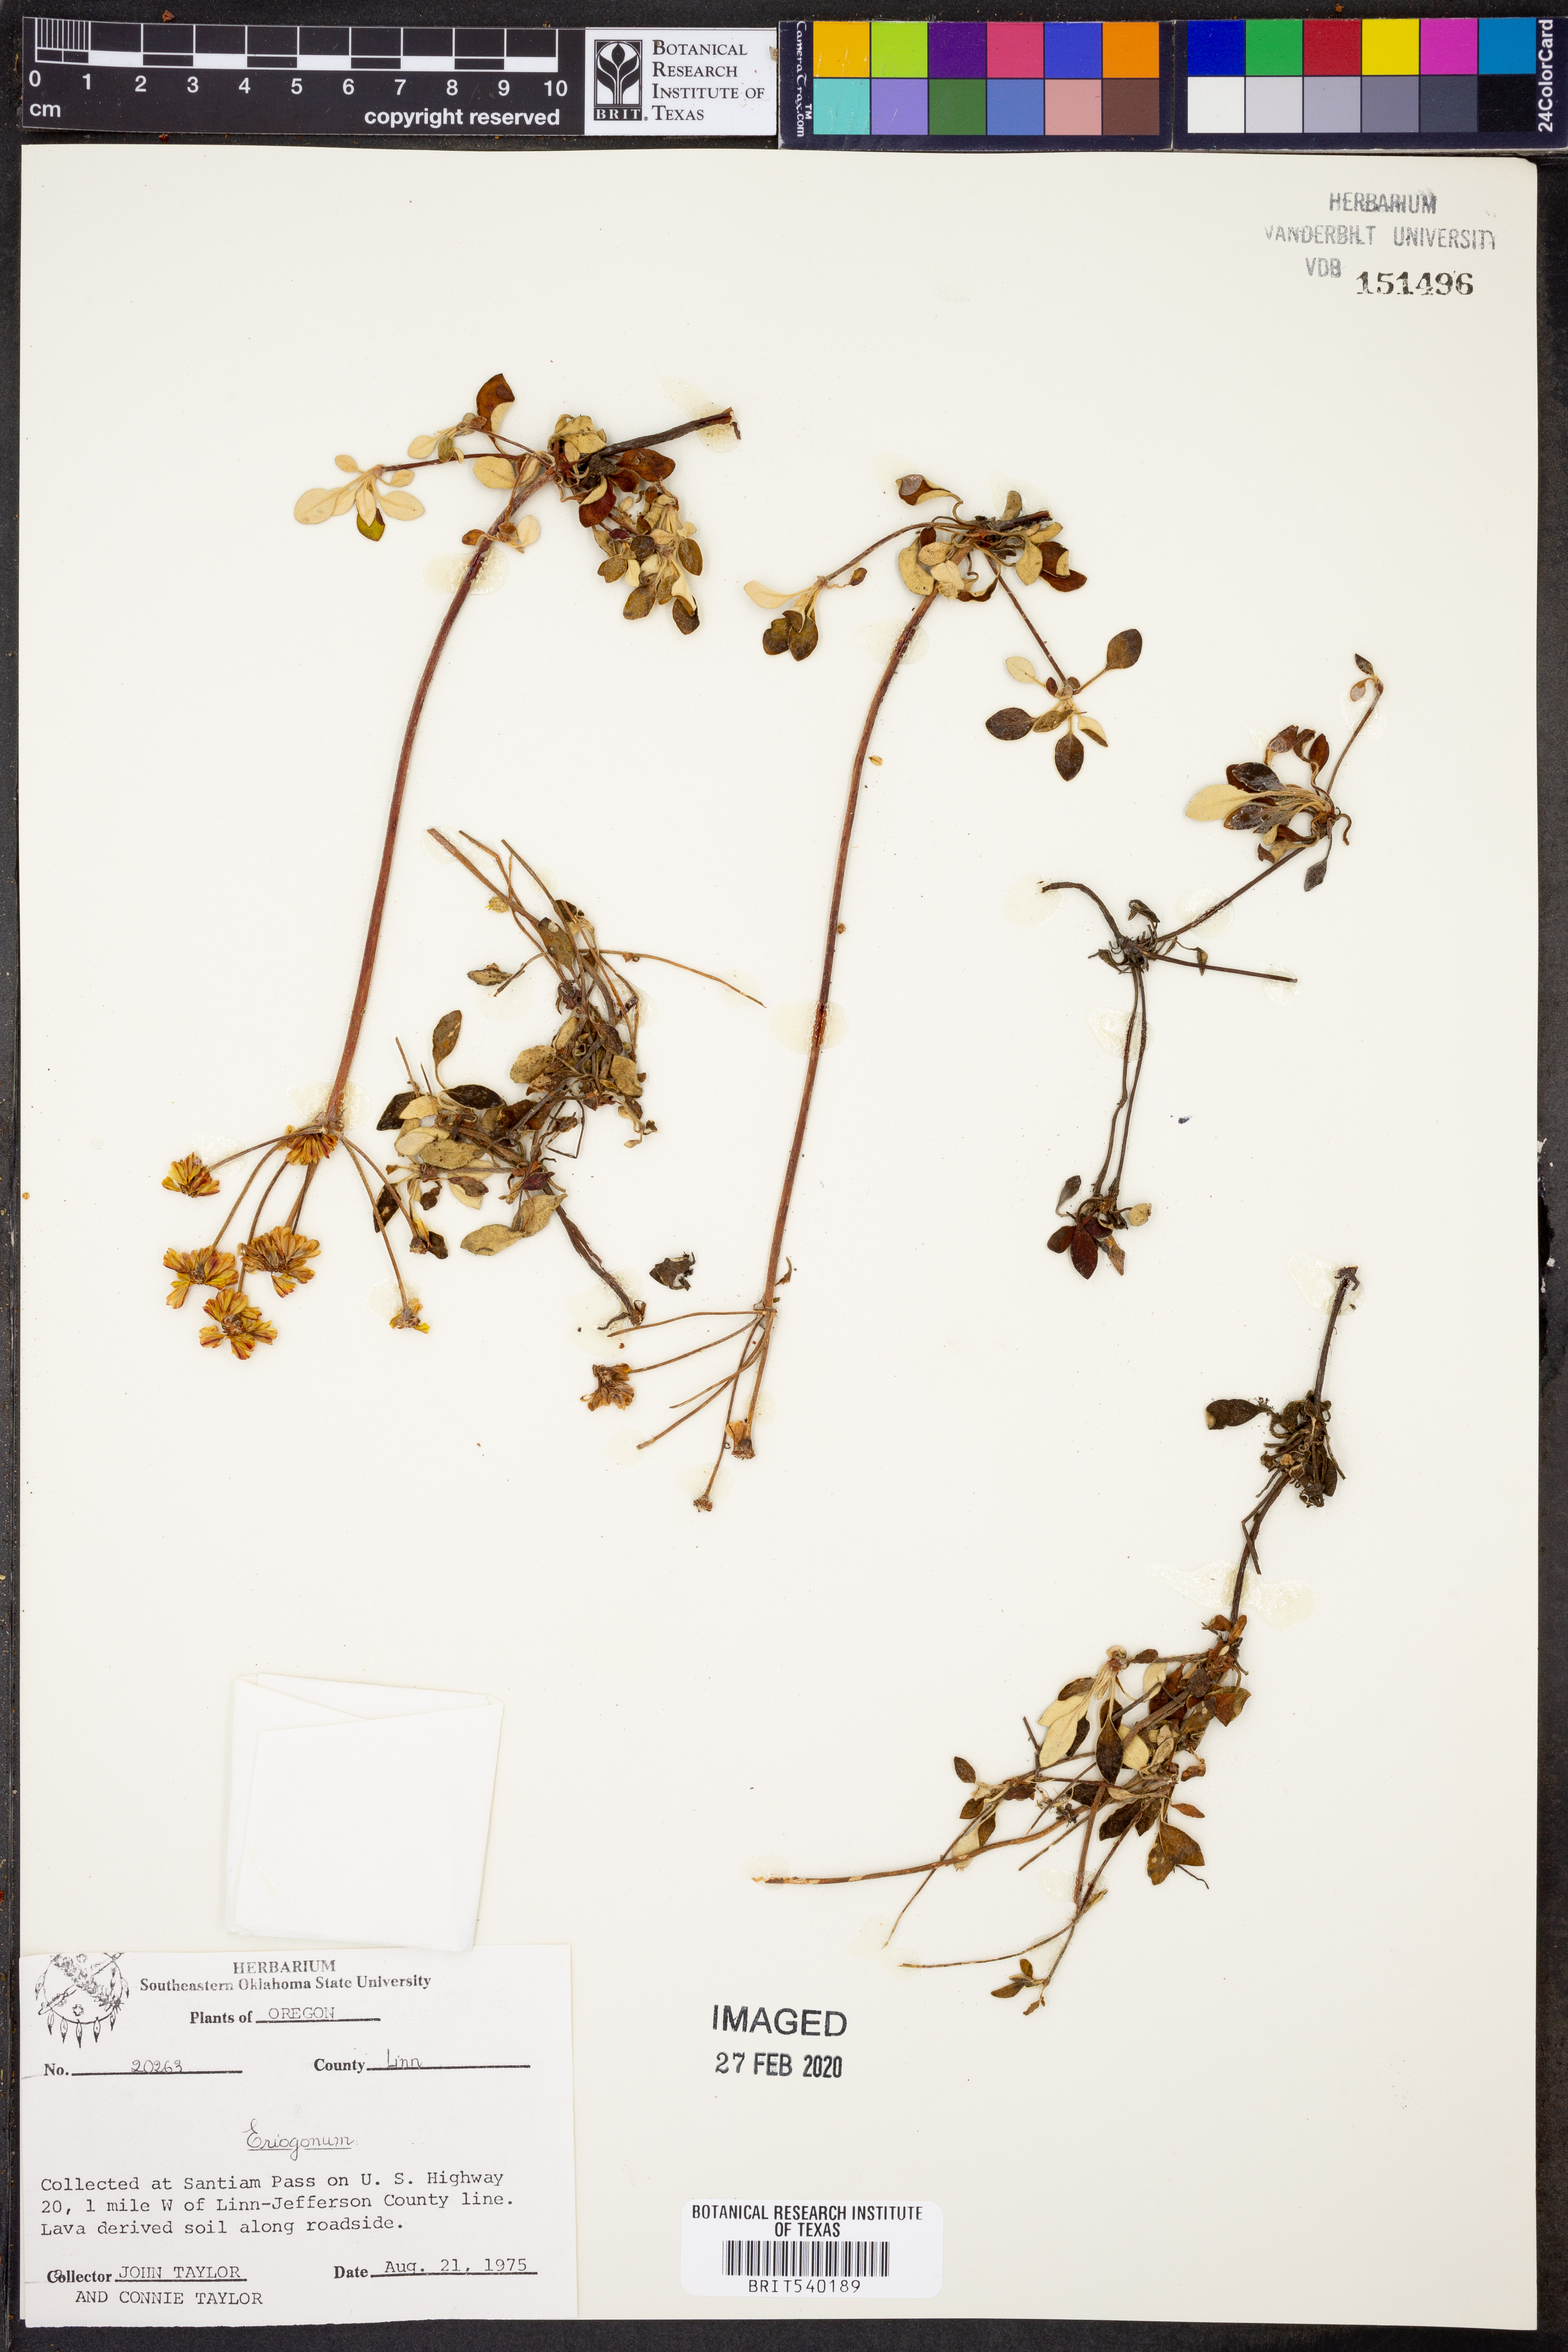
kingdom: Plantae
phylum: Tracheophyta
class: Magnoliopsida
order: Caryophyllales
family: Polygonaceae
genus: Eriogonum
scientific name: Eriogonum
